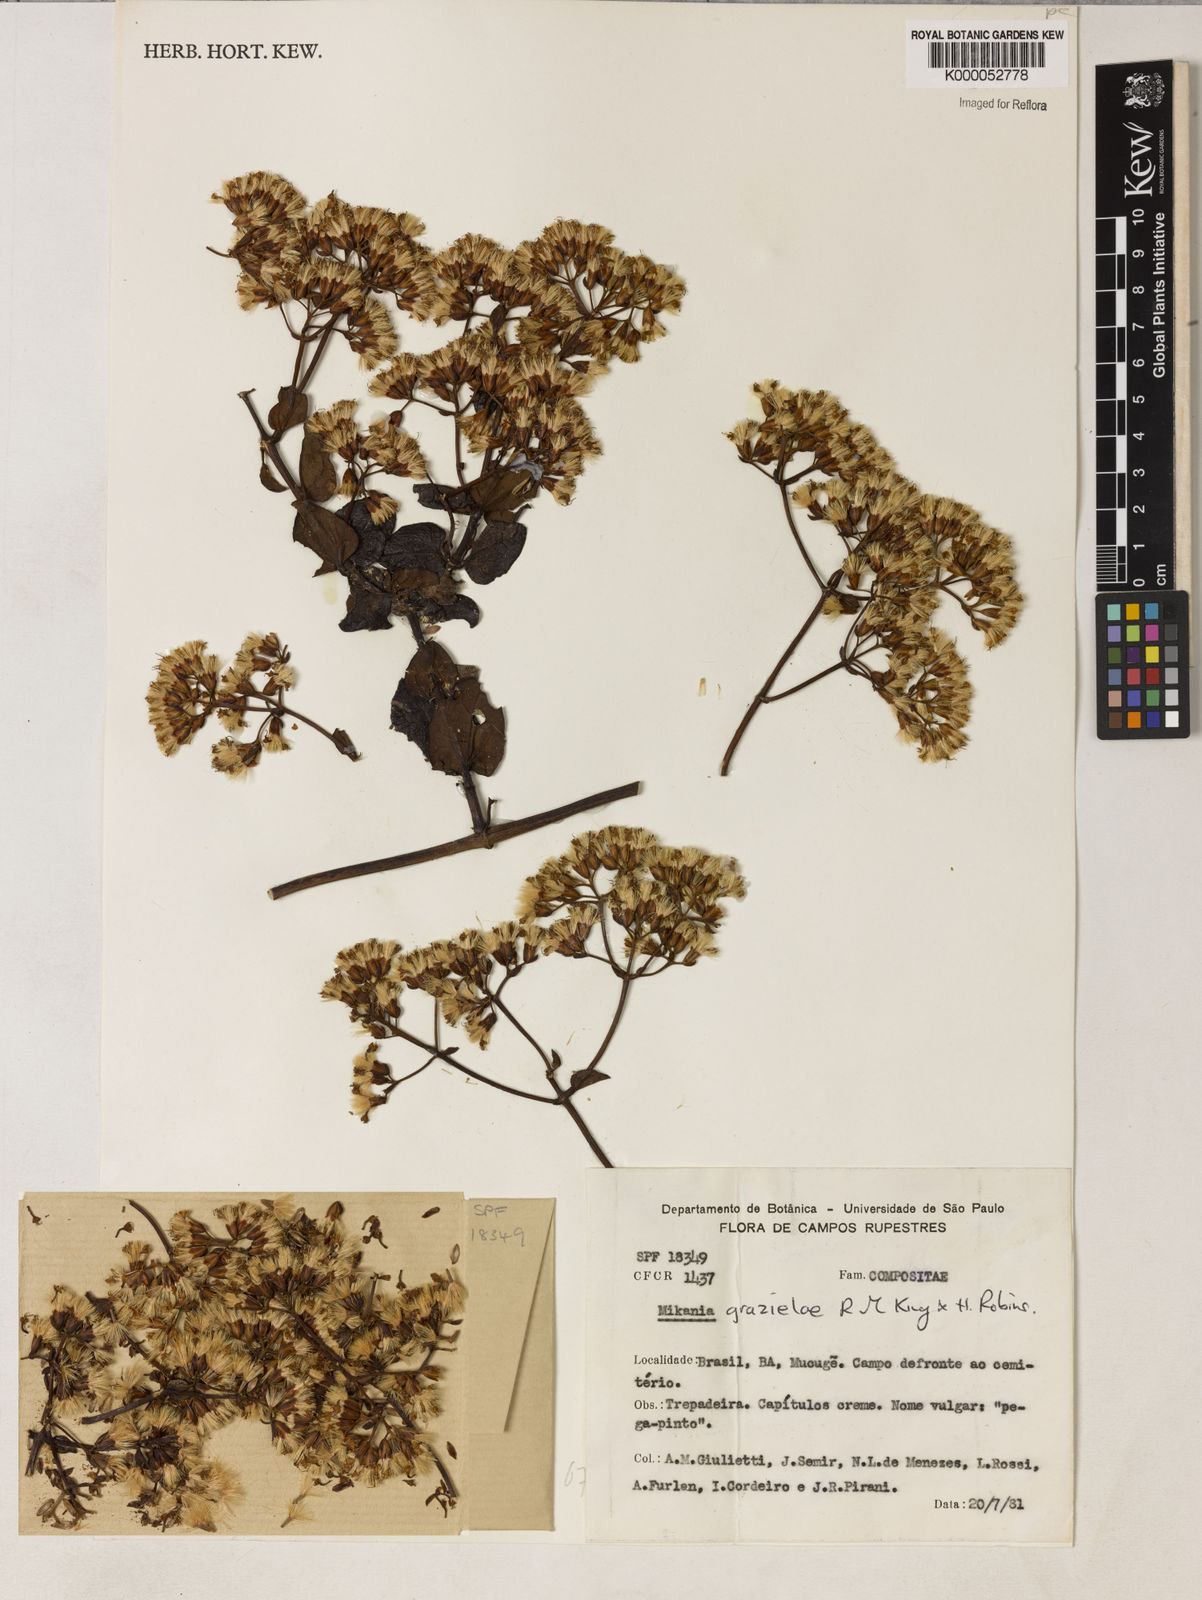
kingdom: Plantae
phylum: Tracheophyta
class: Magnoliopsida
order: Asterales
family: Asteraceae
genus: Mikania
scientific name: Mikania grazielae
